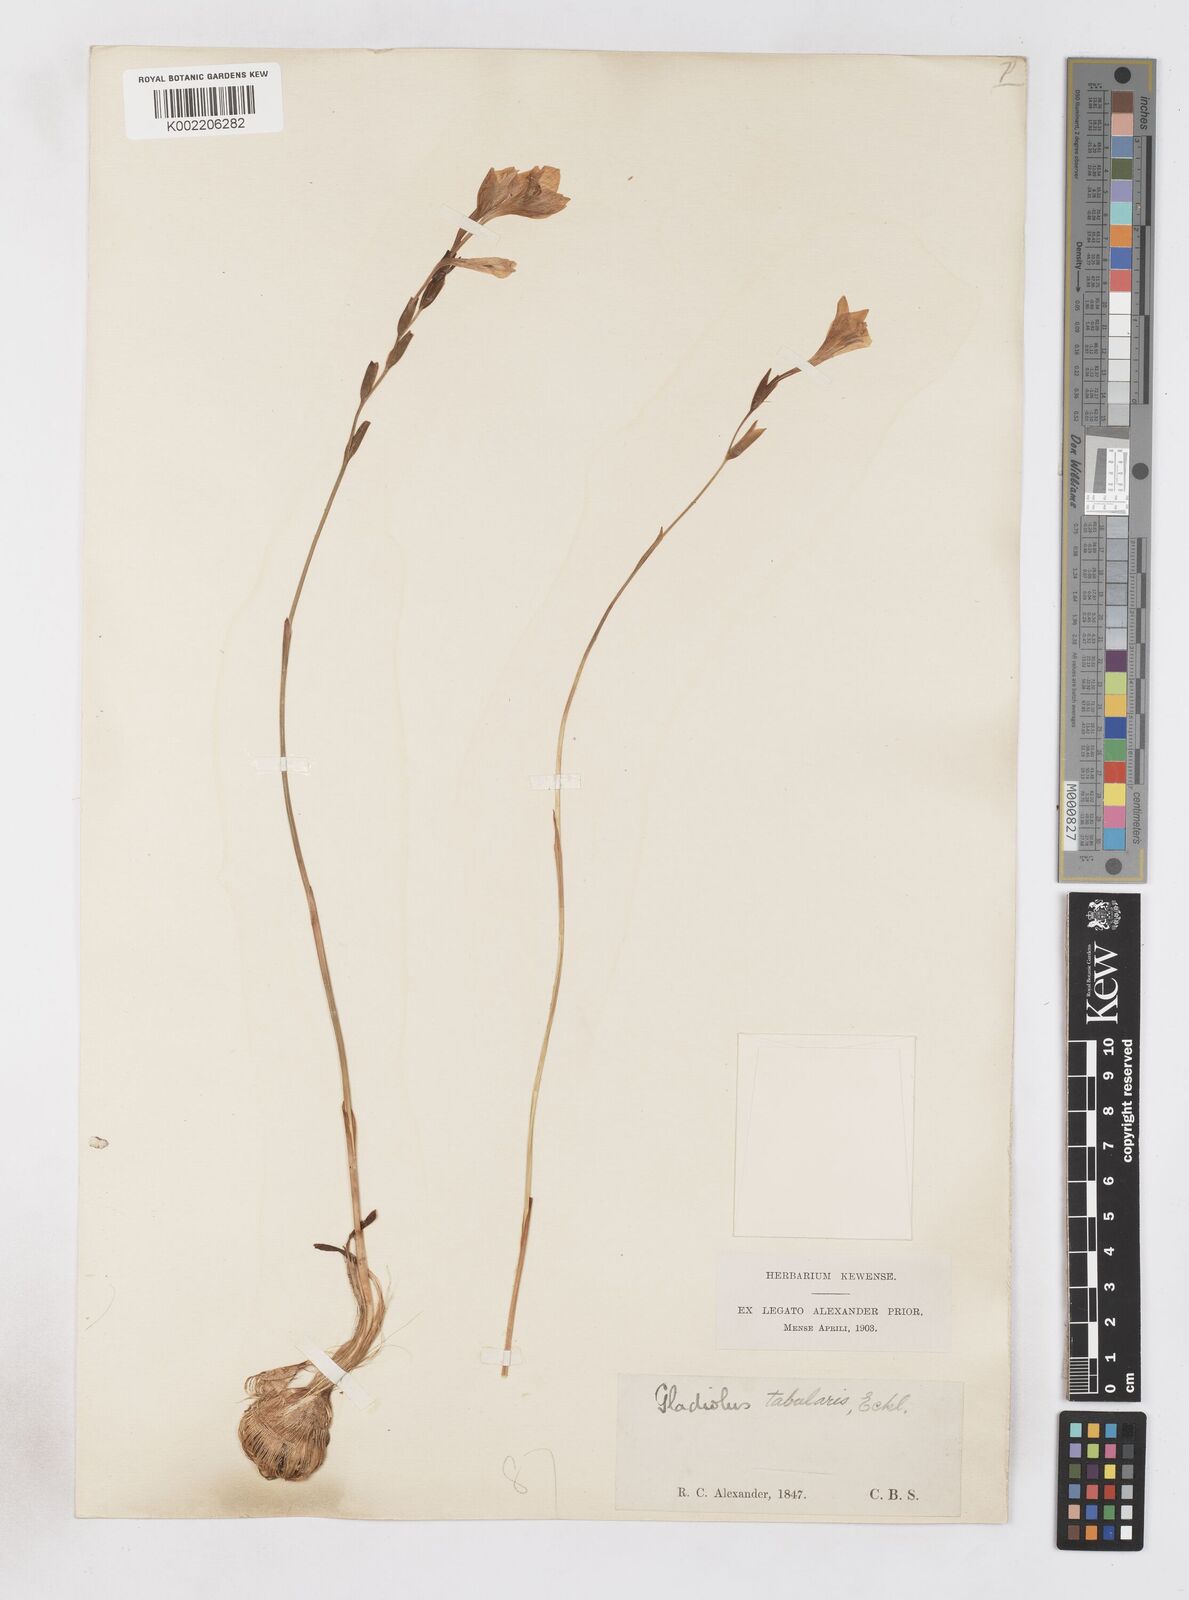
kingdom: Plantae
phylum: Tracheophyta
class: Liliopsida
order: Asparagales
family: Iridaceae
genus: Gladiolus
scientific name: Gladiolus
